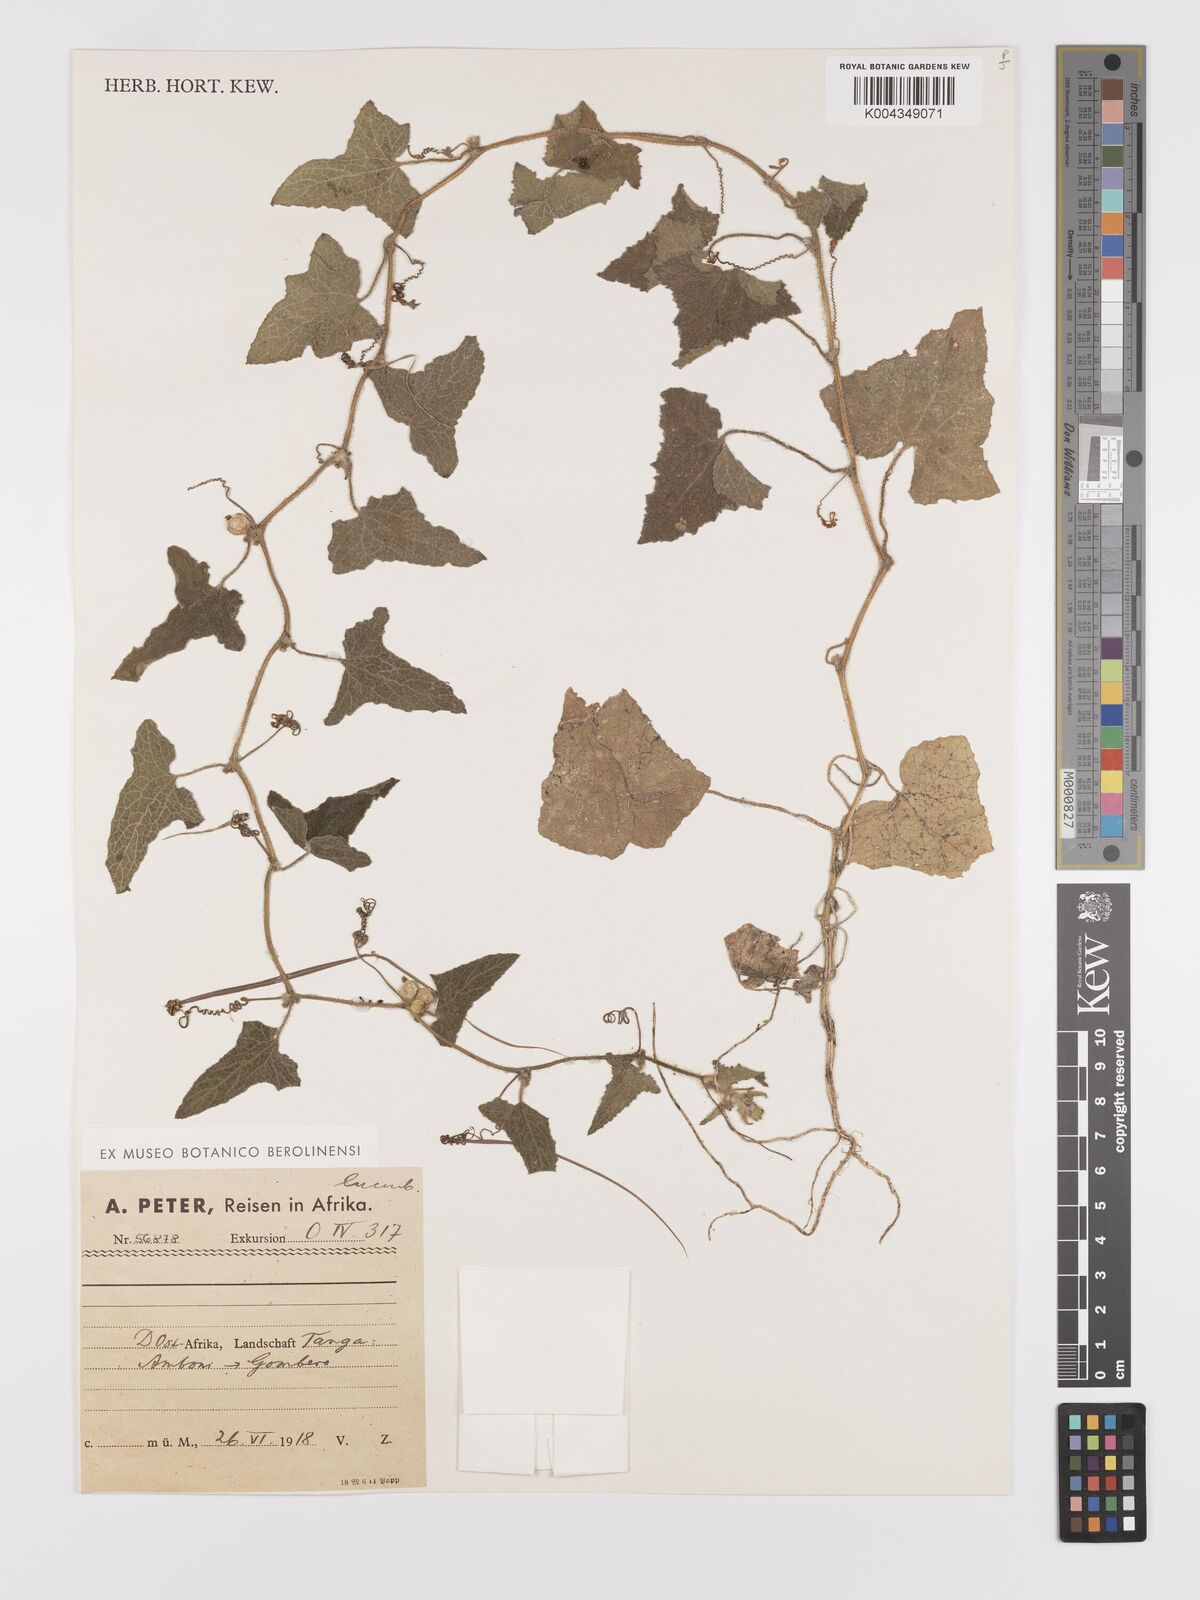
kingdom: Plantae
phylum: Tracheophyta
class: Magnoliopsida
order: Cucurbitales
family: Cucurbitaceae
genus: Cucumis
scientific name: Cucumis maderaspatanus
